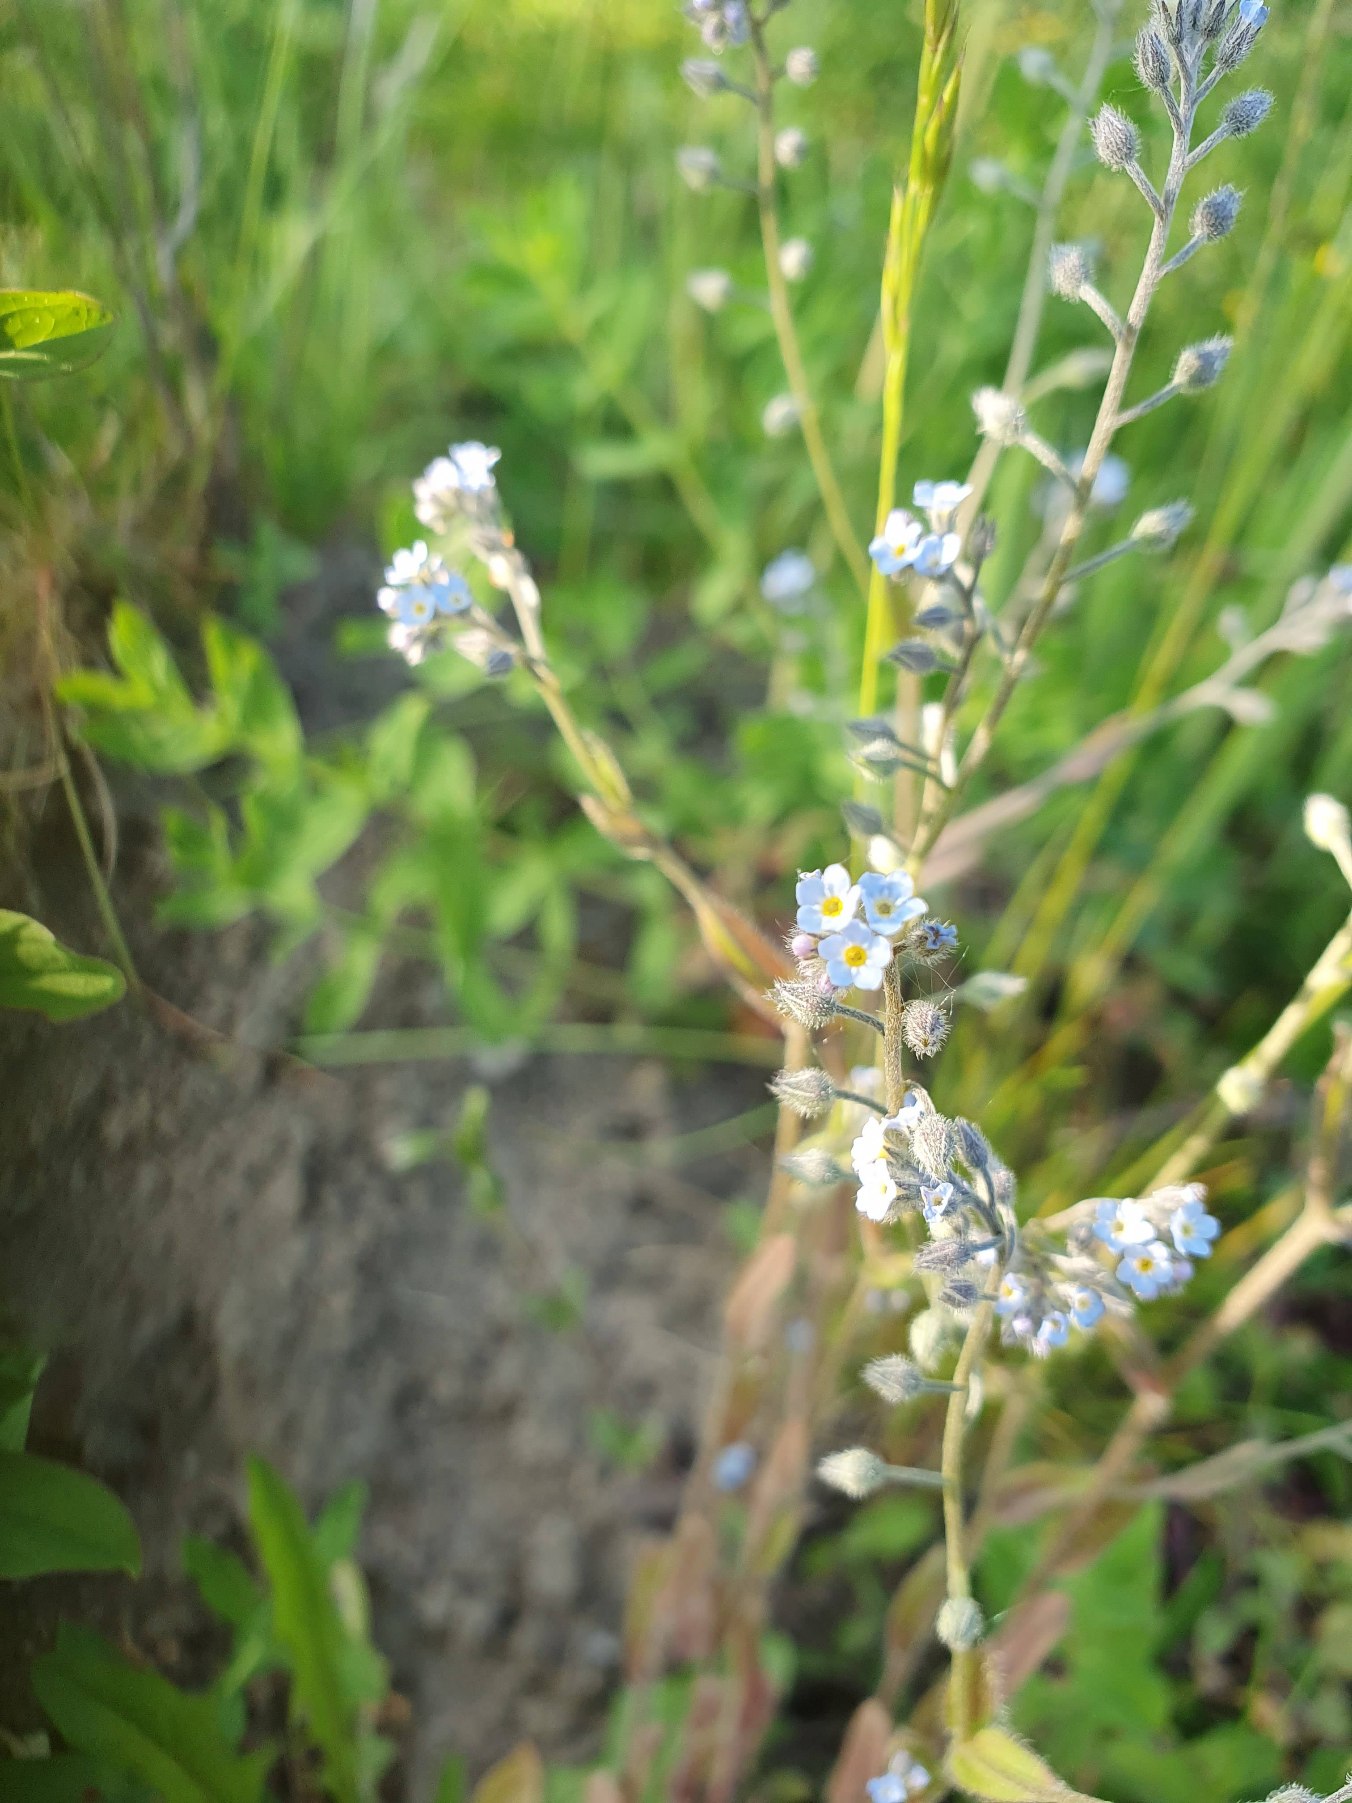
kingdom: Plantae
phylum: Tracheophyta
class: Magnoliopsida
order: Boraginales
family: Boraginaceae
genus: Myosotis
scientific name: Myosotis arvensis
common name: Mark-forglemmigej
